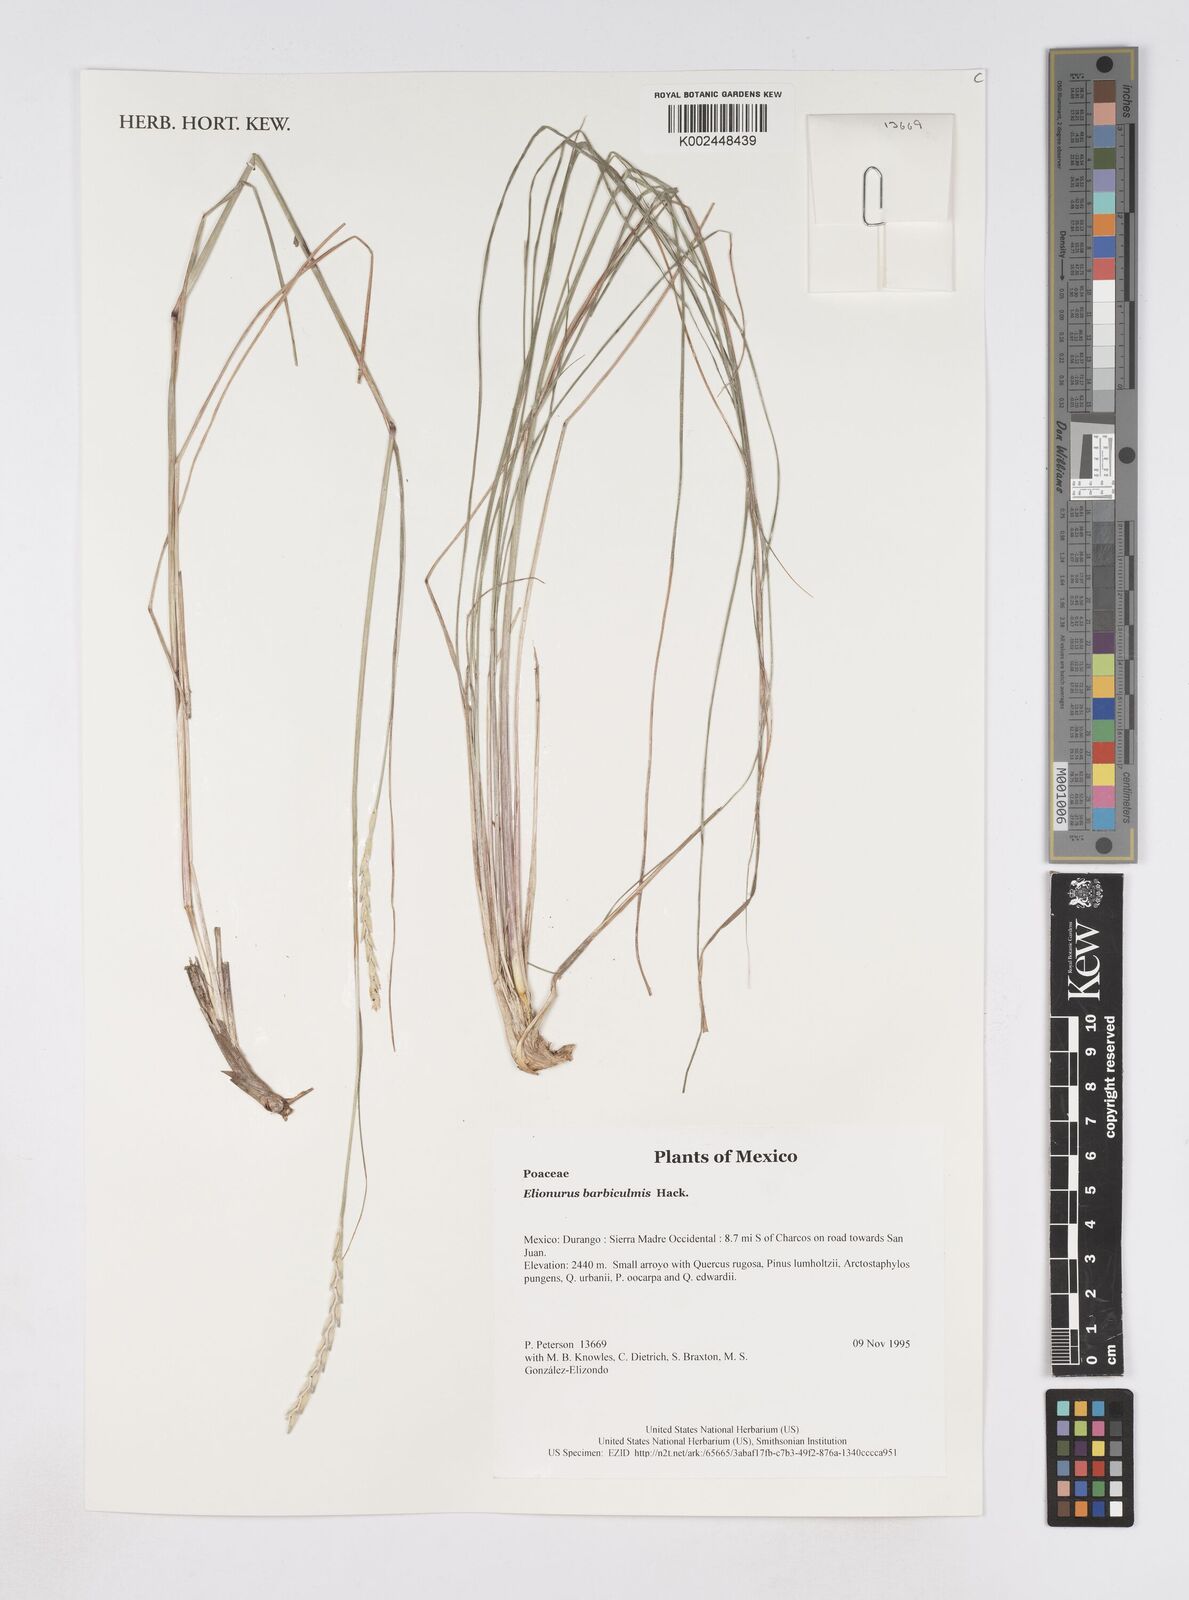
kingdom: Plantae
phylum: Tracheophyta
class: Liliopsida
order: Poales
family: Poaceae
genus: Elionurus
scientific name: Elionurus barbiculmis
